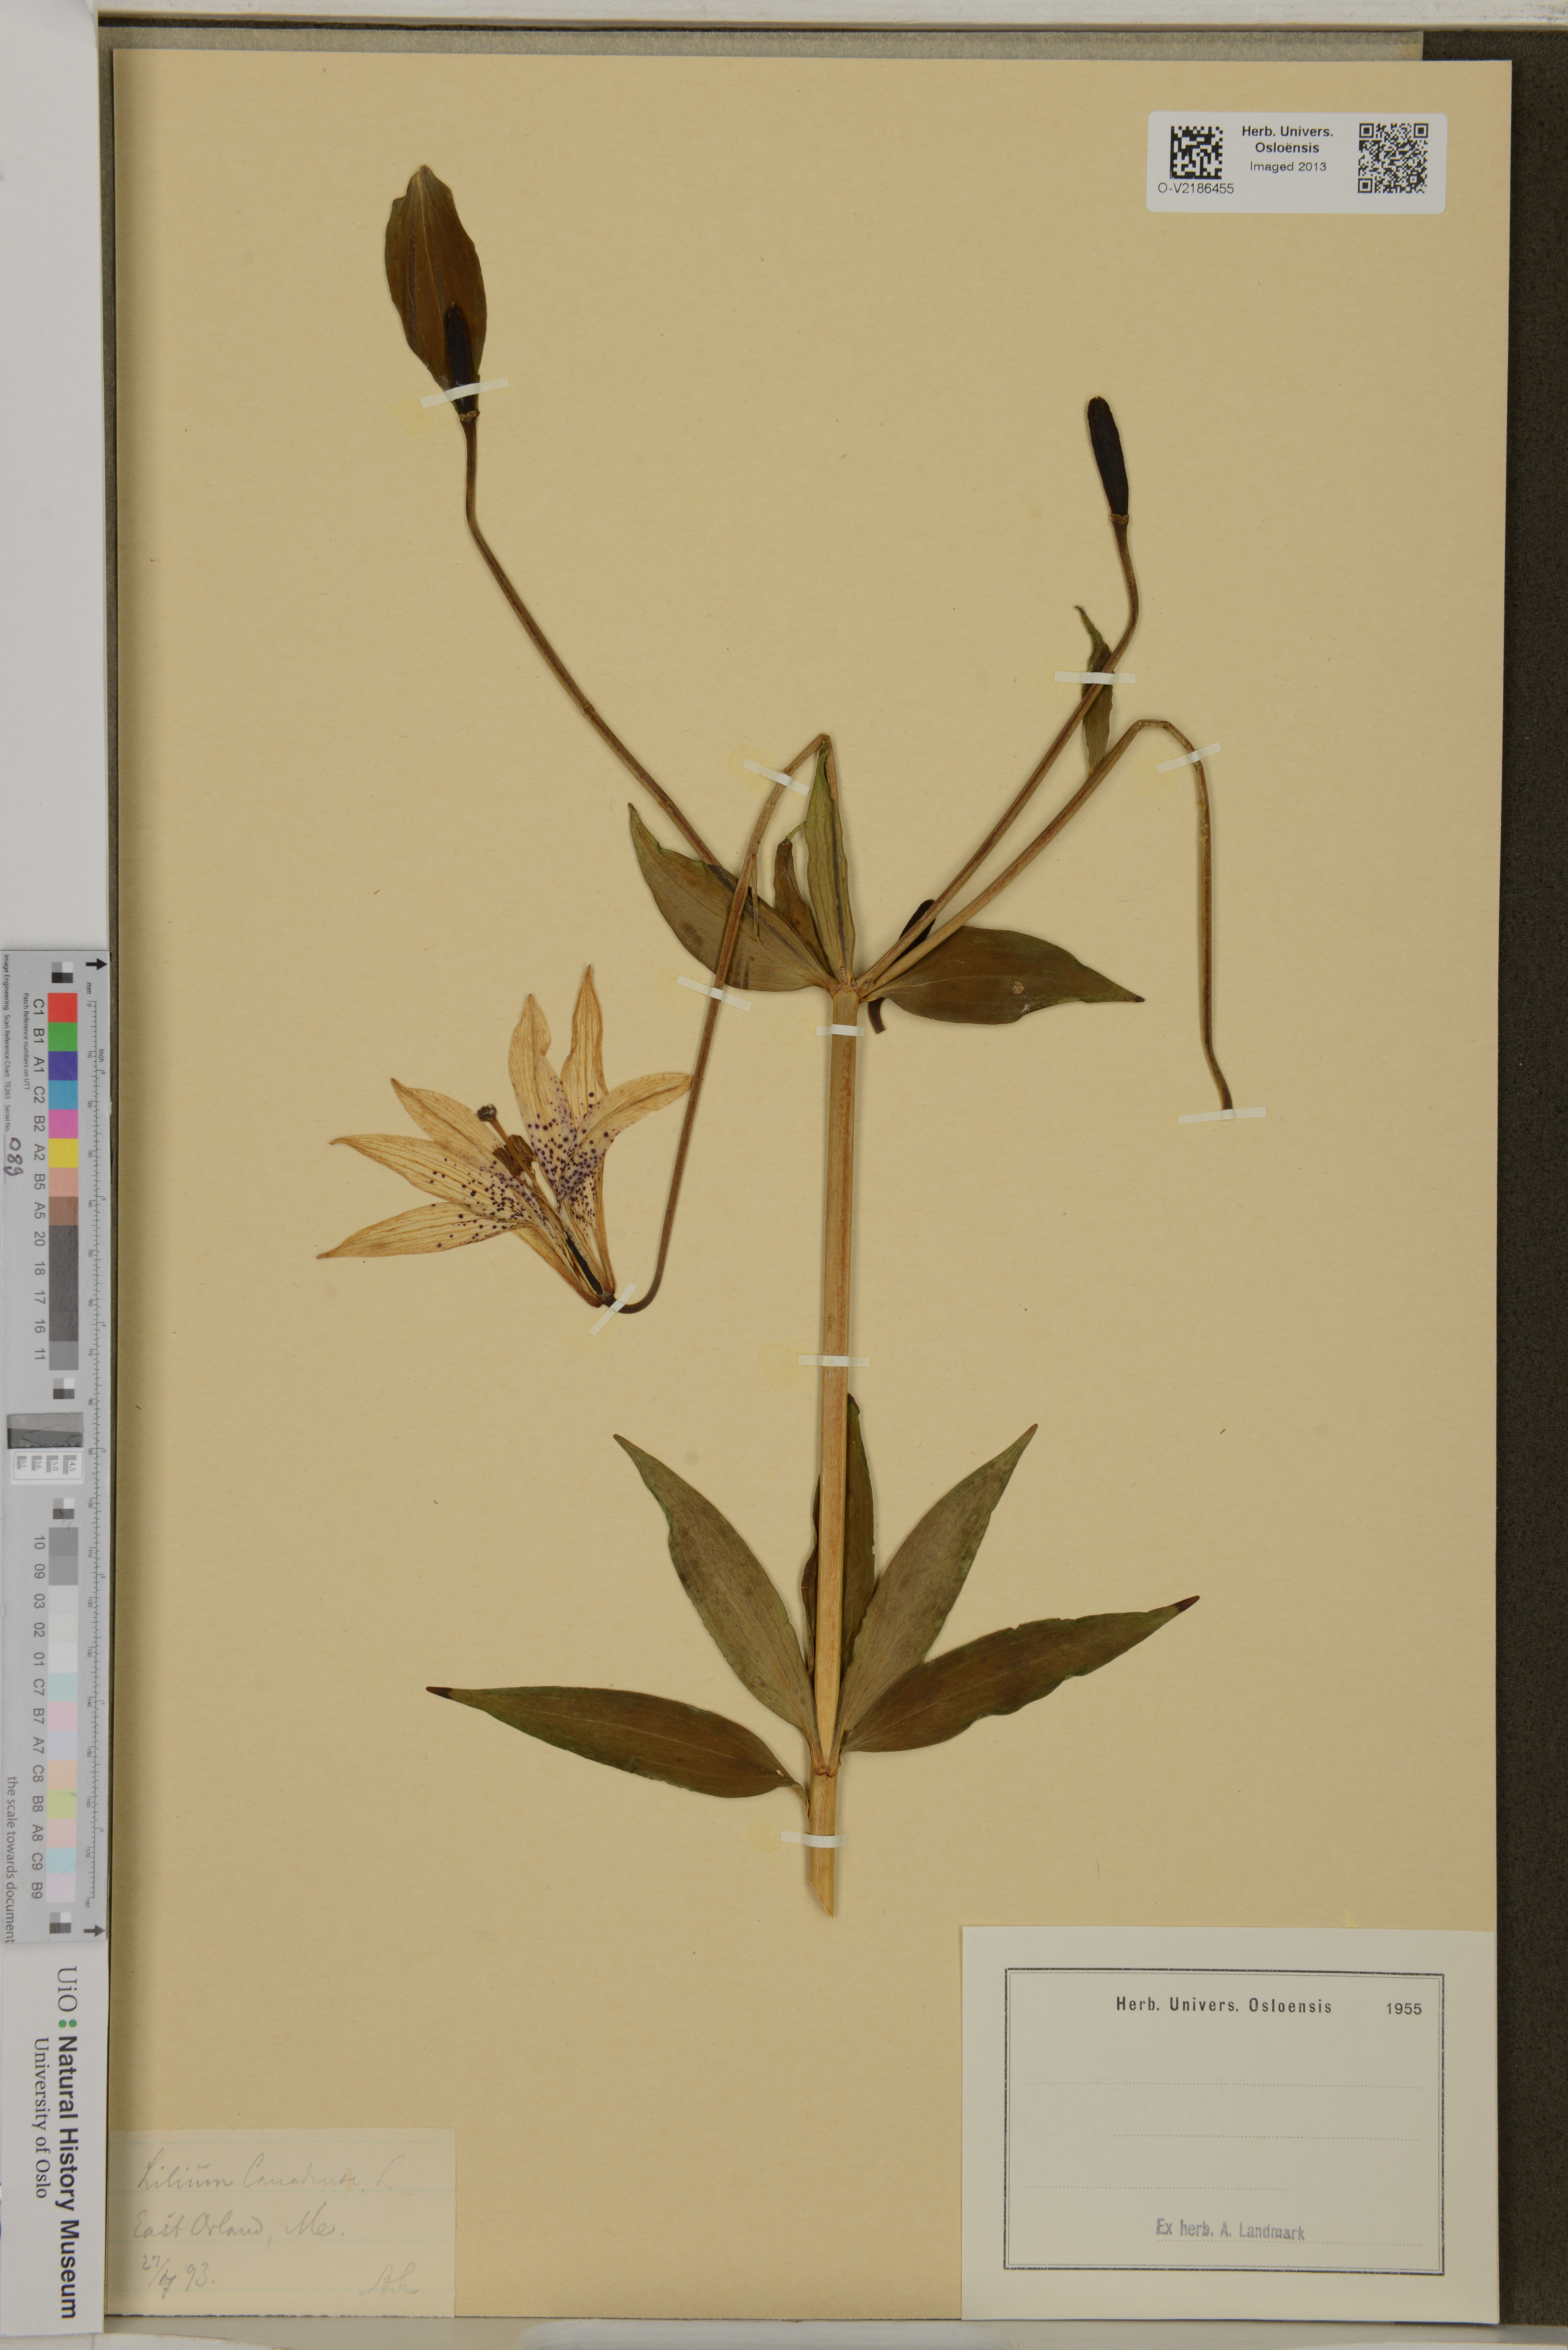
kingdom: Plantae
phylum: Tracheophyta
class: Liliopsida
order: Liliales
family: Liliaceae
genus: Lilium
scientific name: Lilium canadense
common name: Canada lily
